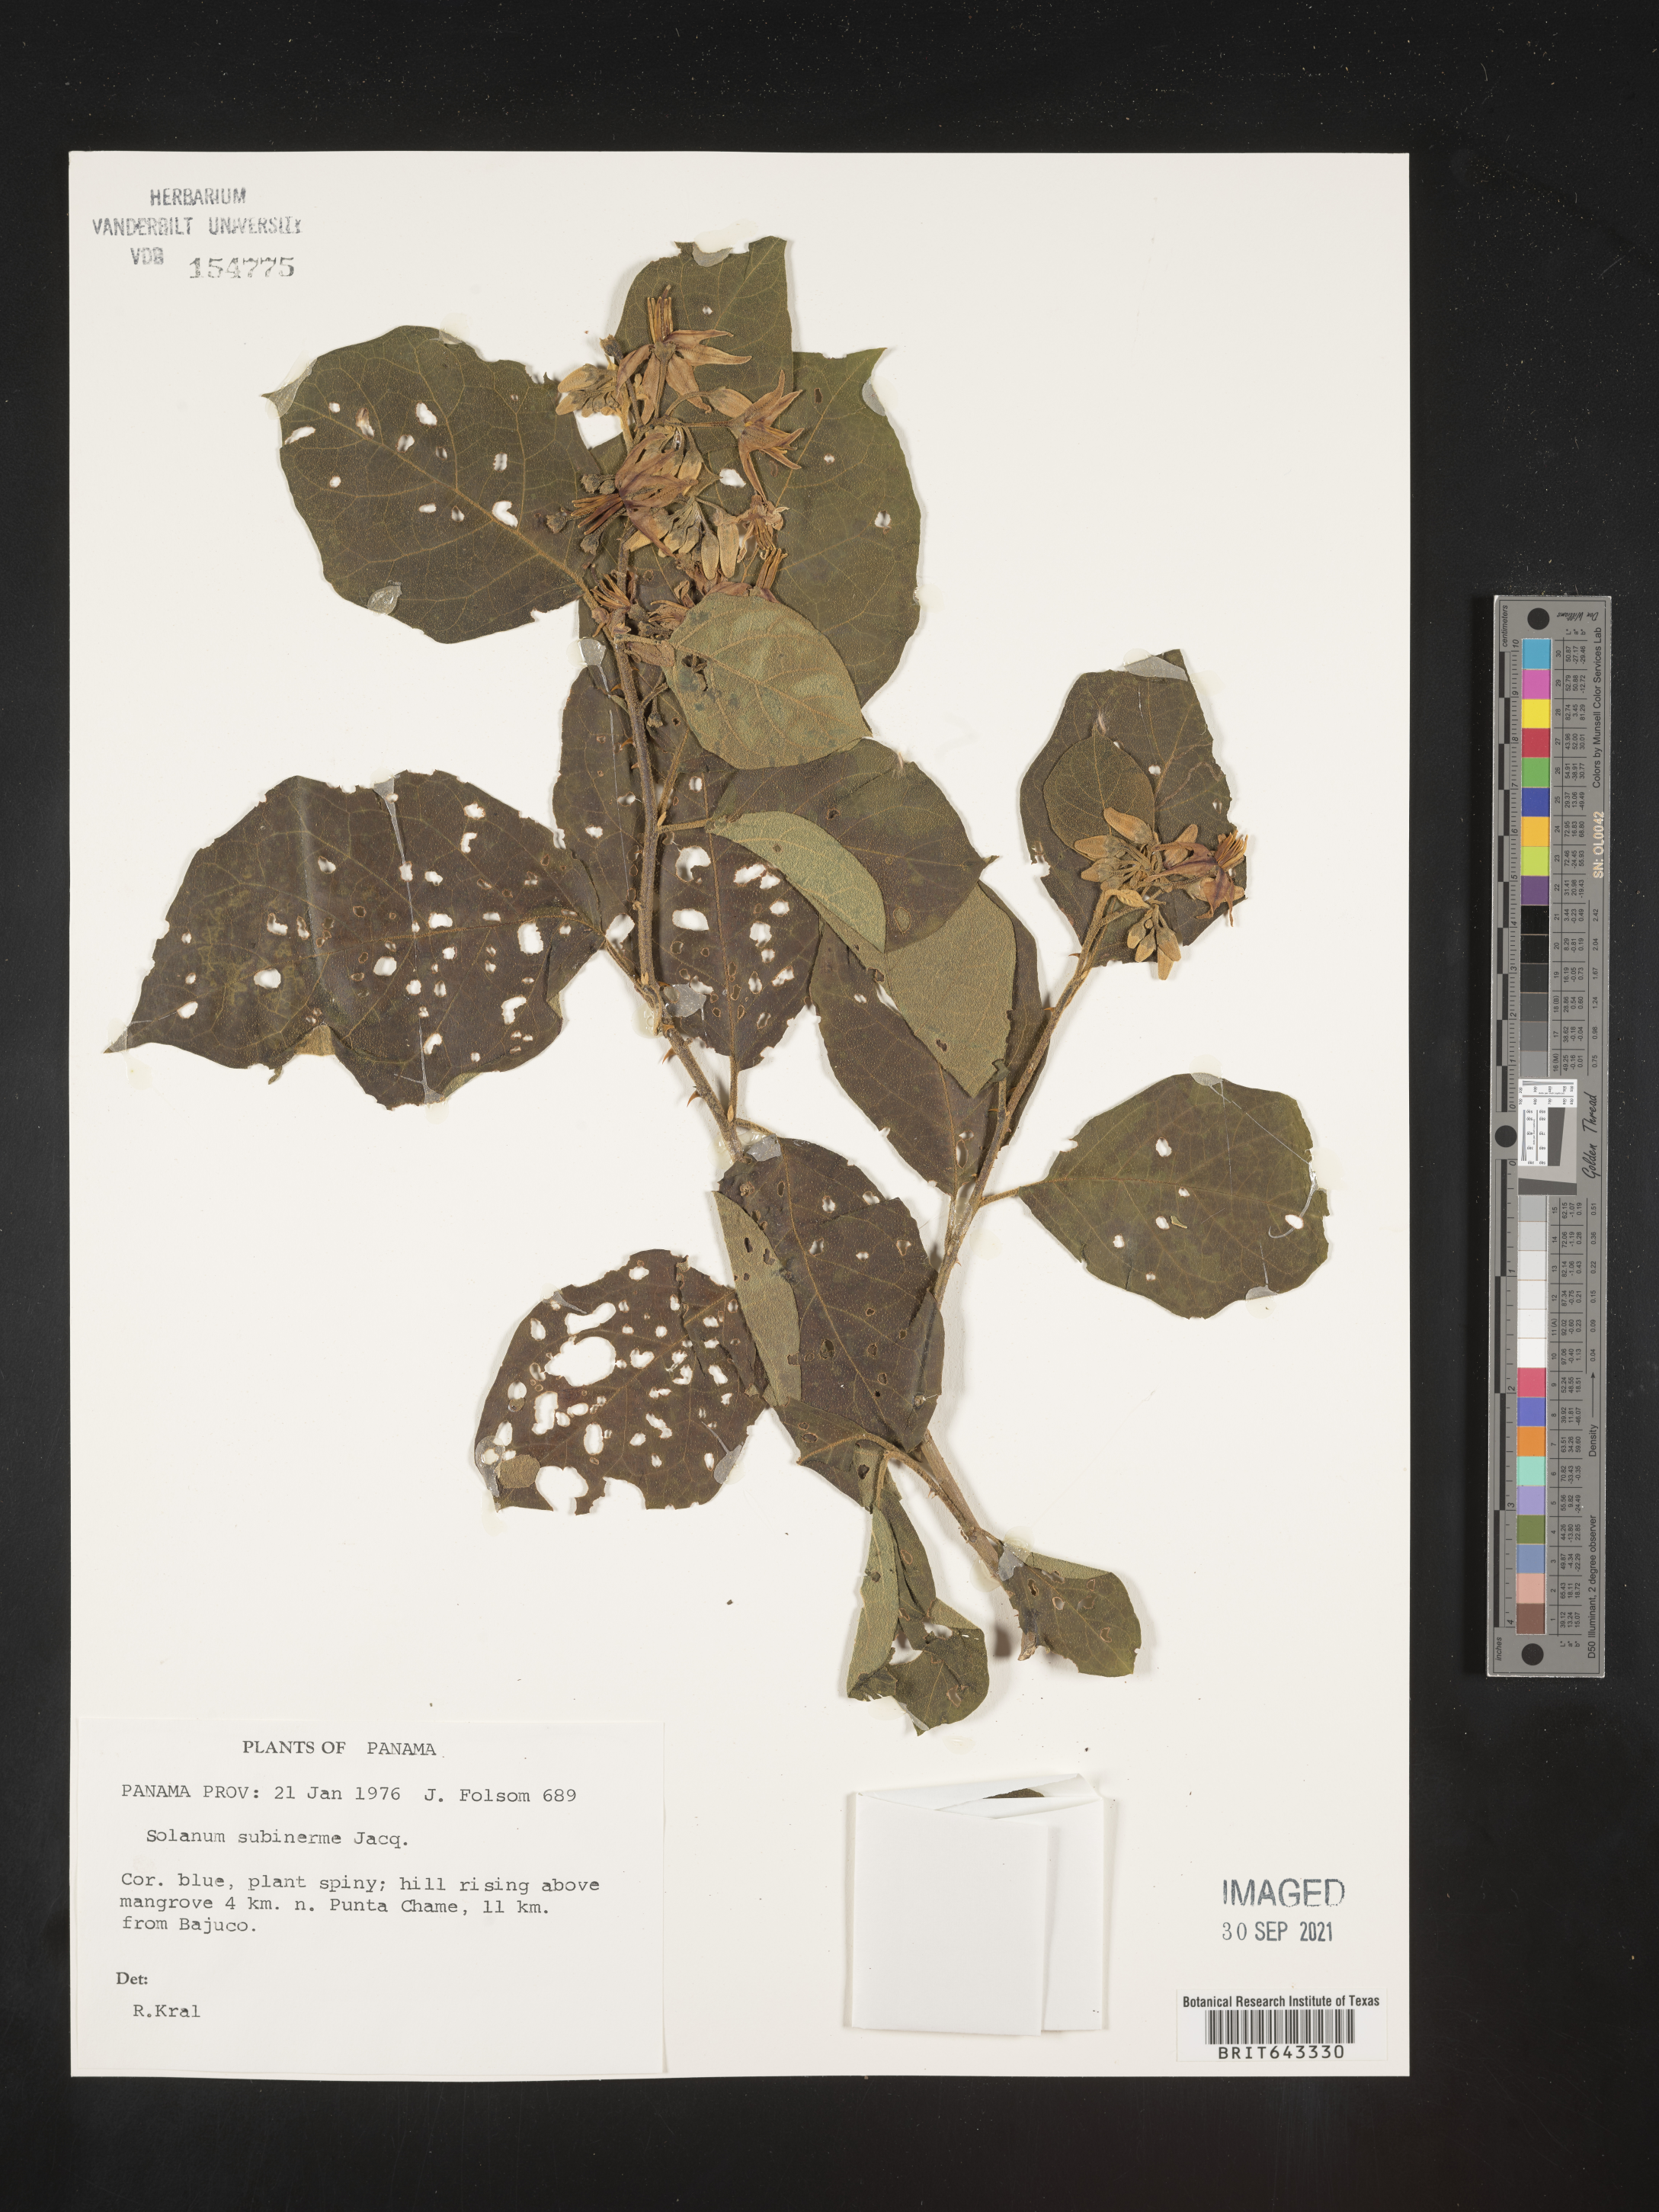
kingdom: Plantae
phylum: Tracheophyta
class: Magnoliopsida
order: Solanales
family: Solanaceae
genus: Solanum
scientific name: Solanum
